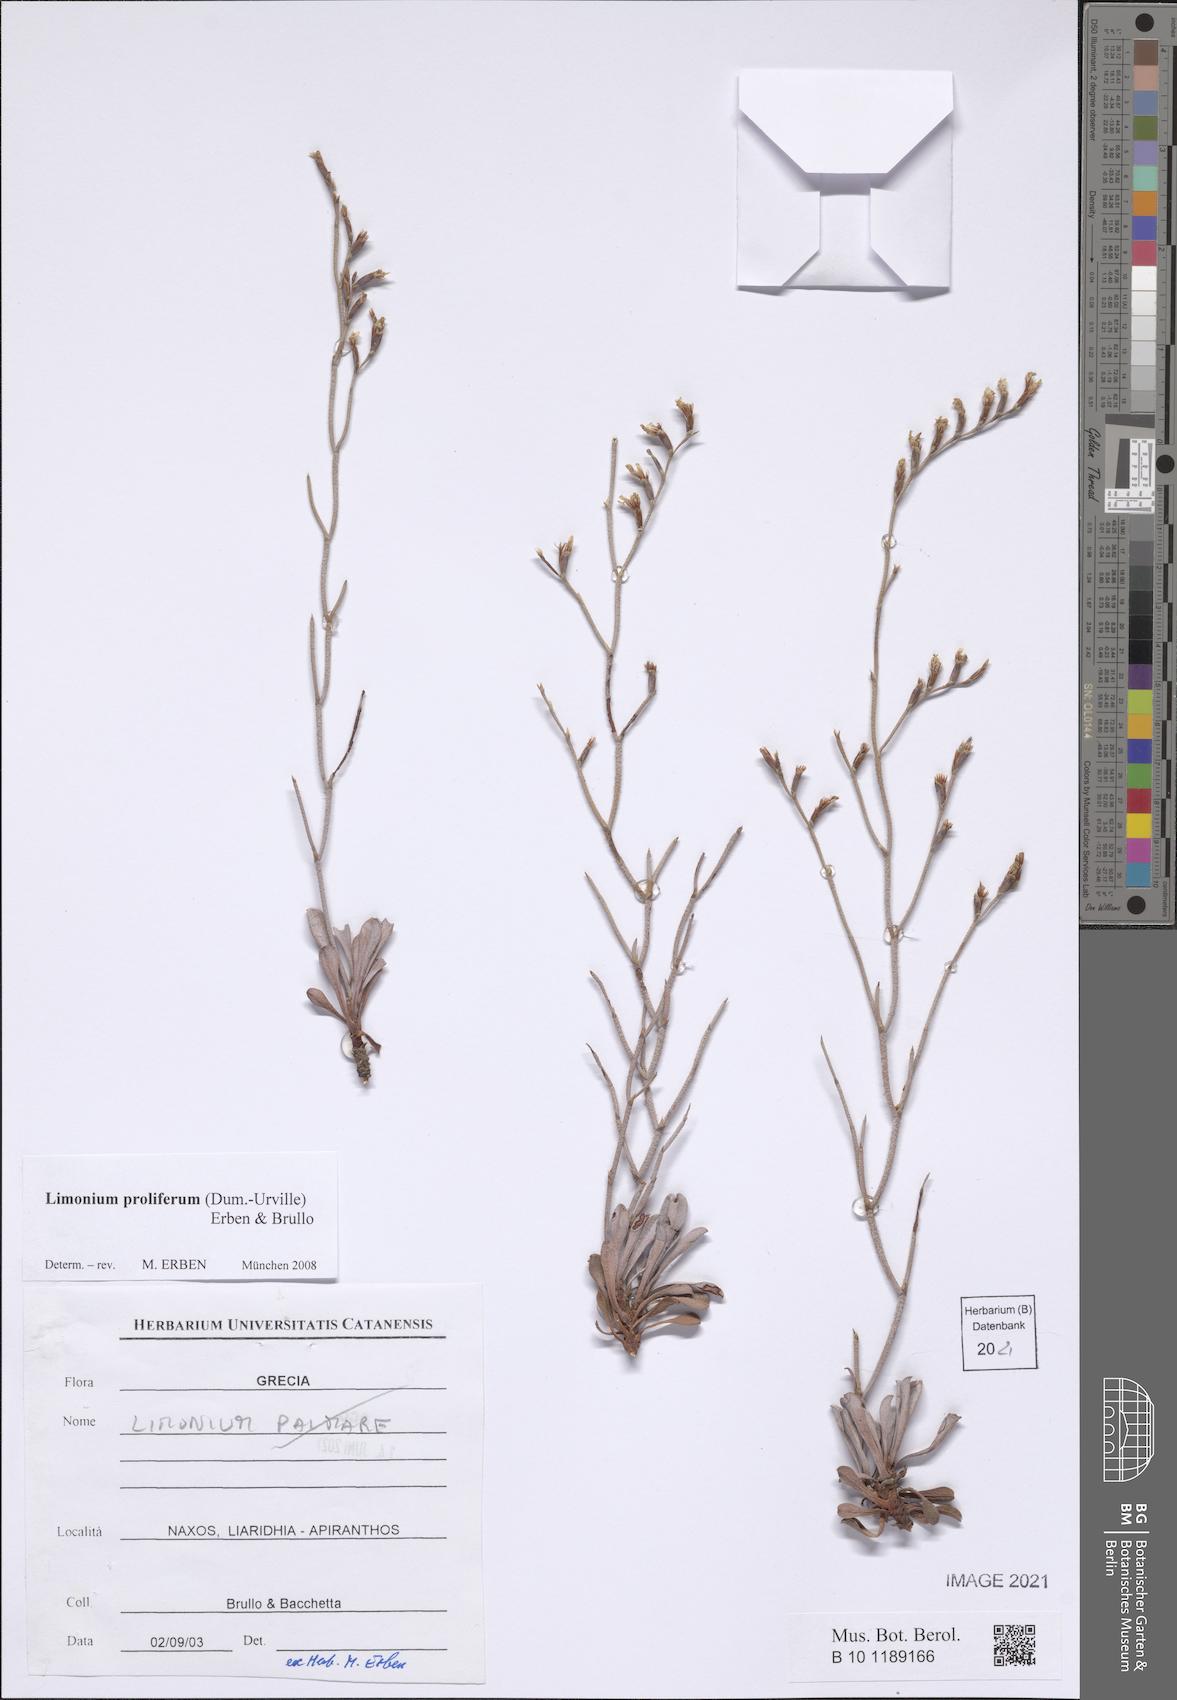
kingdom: Plantae
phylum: Tracheophyta
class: Magnoliopsida
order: Caryophyllales
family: Plumbaginaceae
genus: Limonium
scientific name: Limonium proliferum
